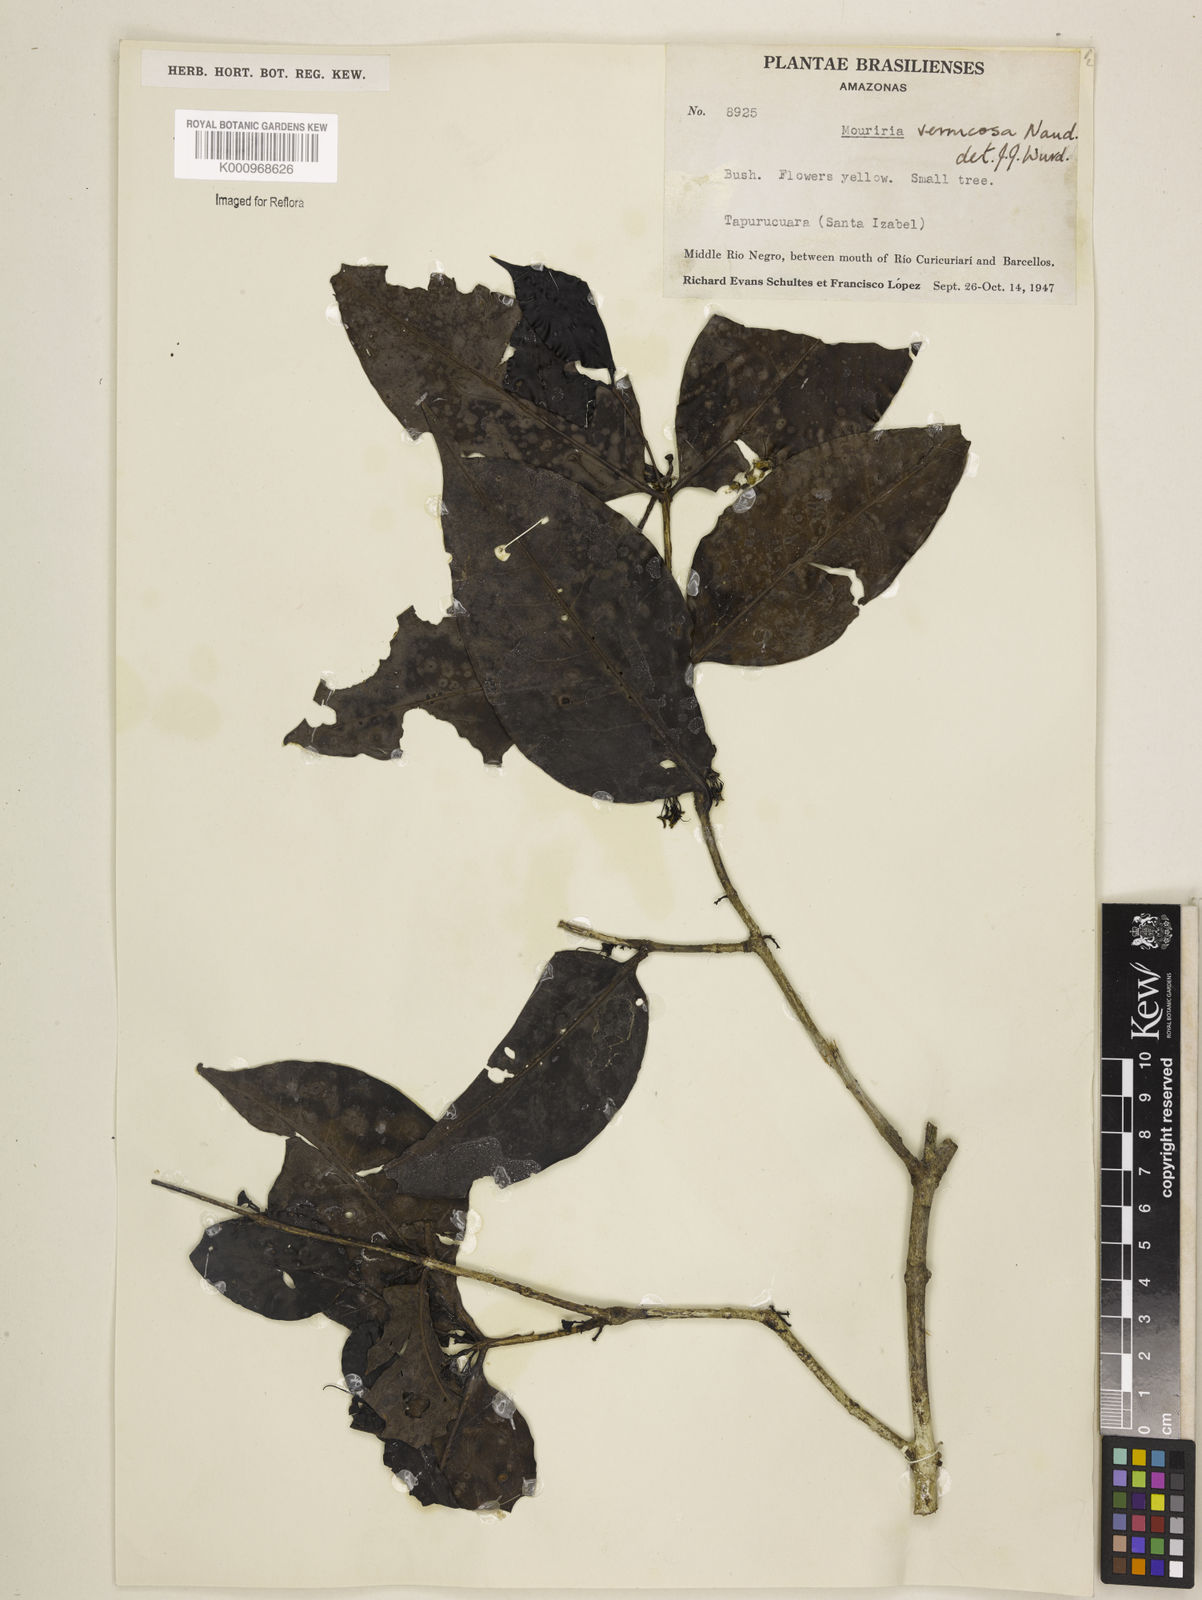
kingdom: Plantae
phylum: Tracheophyta
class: Magnoliopsida
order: Myrtales
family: Melastomataceae
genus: Mouriri
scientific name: Mouriri vernicosa
